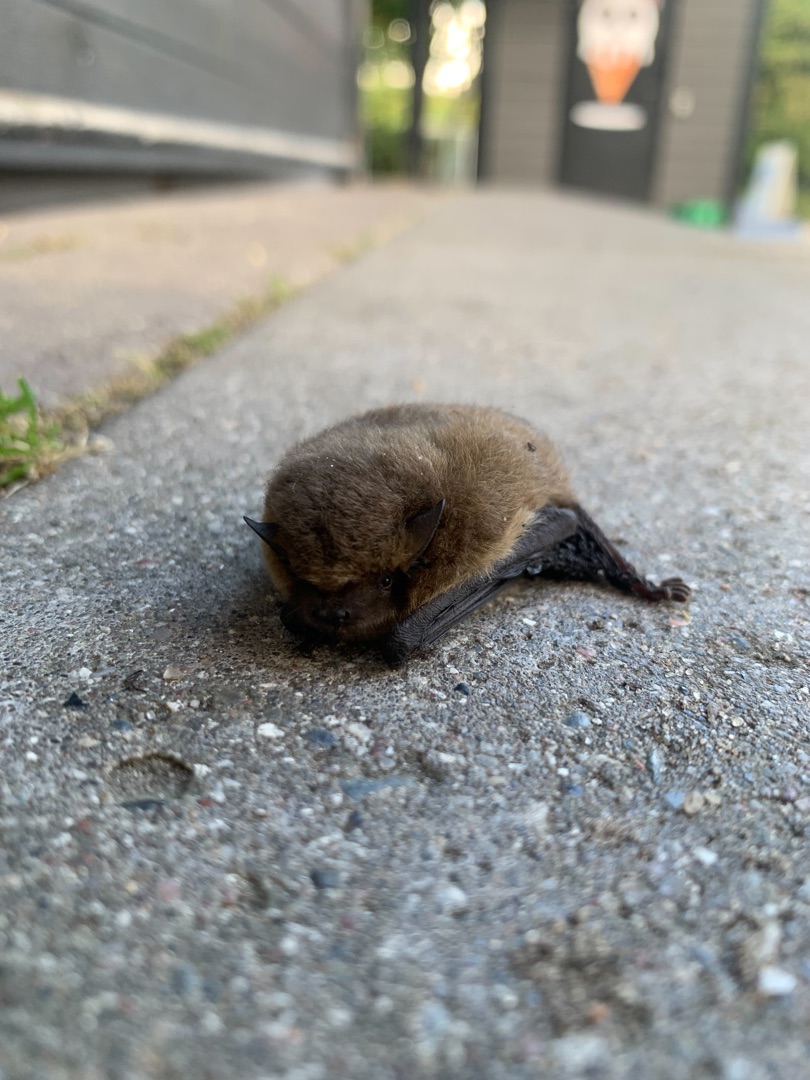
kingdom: Animalia
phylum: Chordata
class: Mammalia
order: Chiroptera
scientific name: Chiroptera
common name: Flagermus
